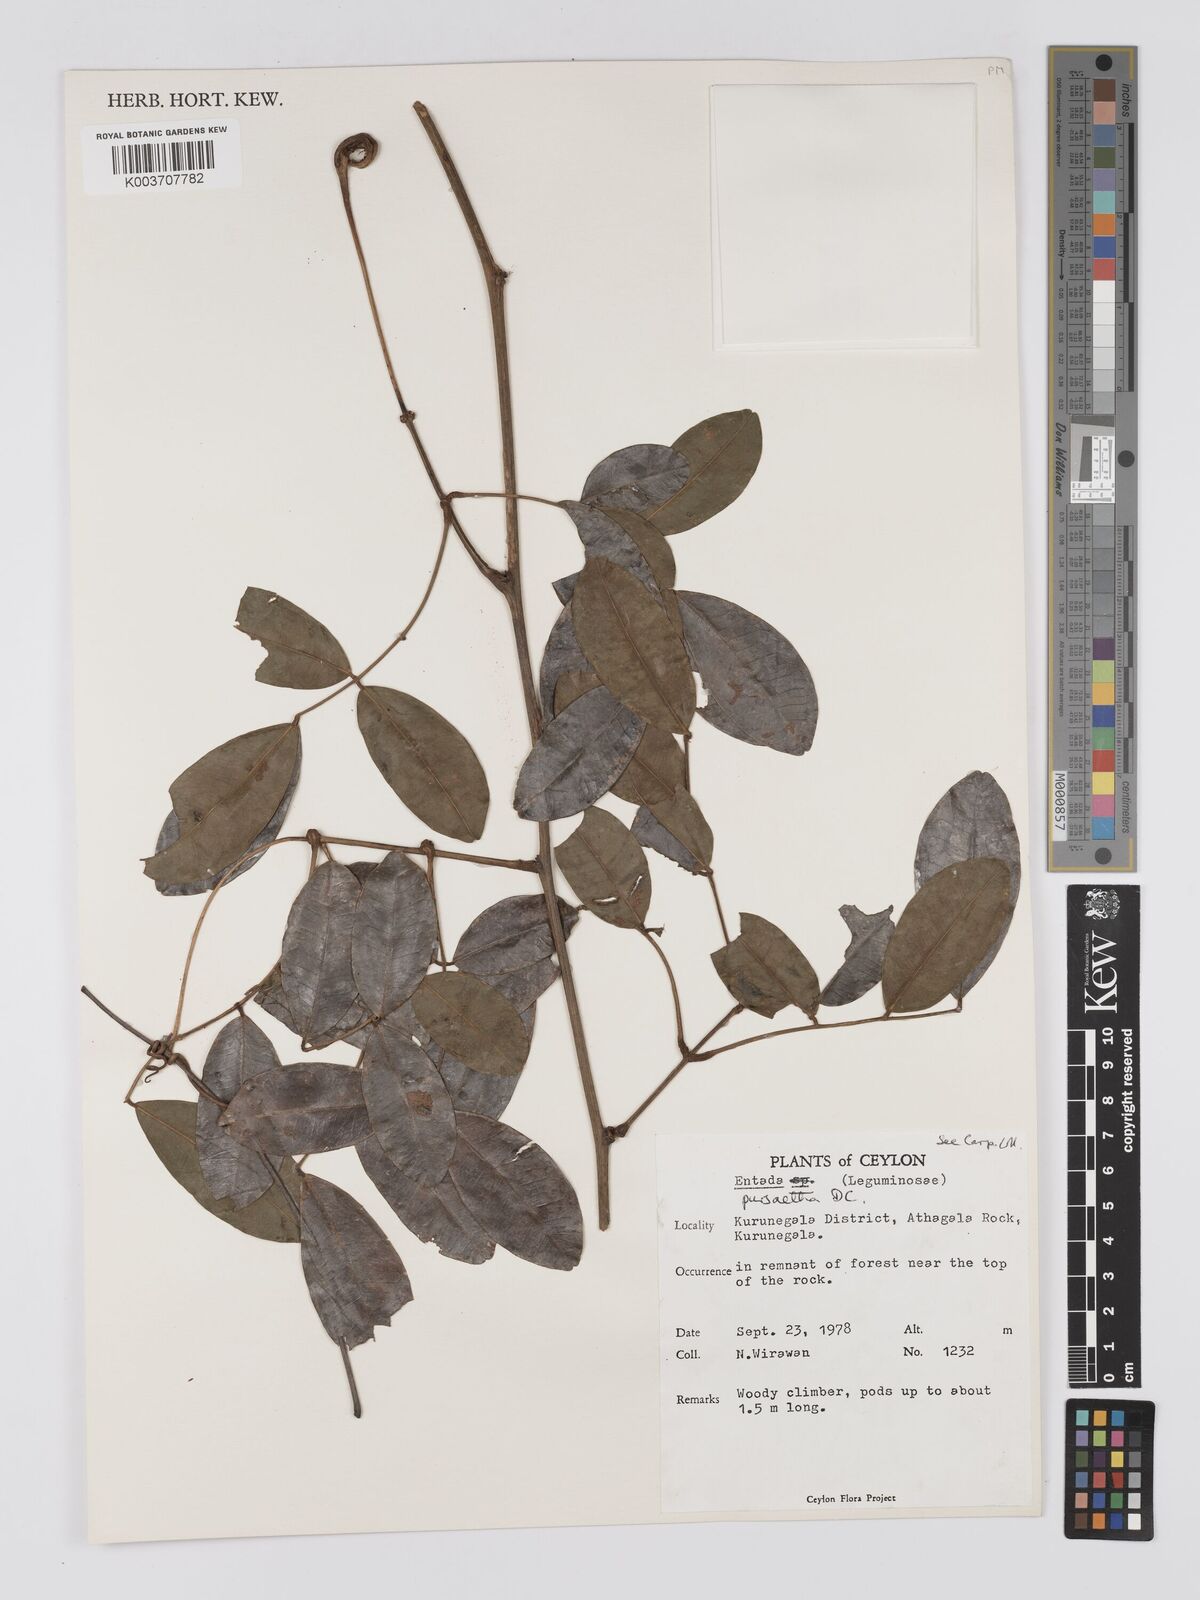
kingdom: Plantae
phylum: Tracheophyta
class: Magnoliopsida
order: Fabales
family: Fabaceae
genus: Entada
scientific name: Entada rheedei
